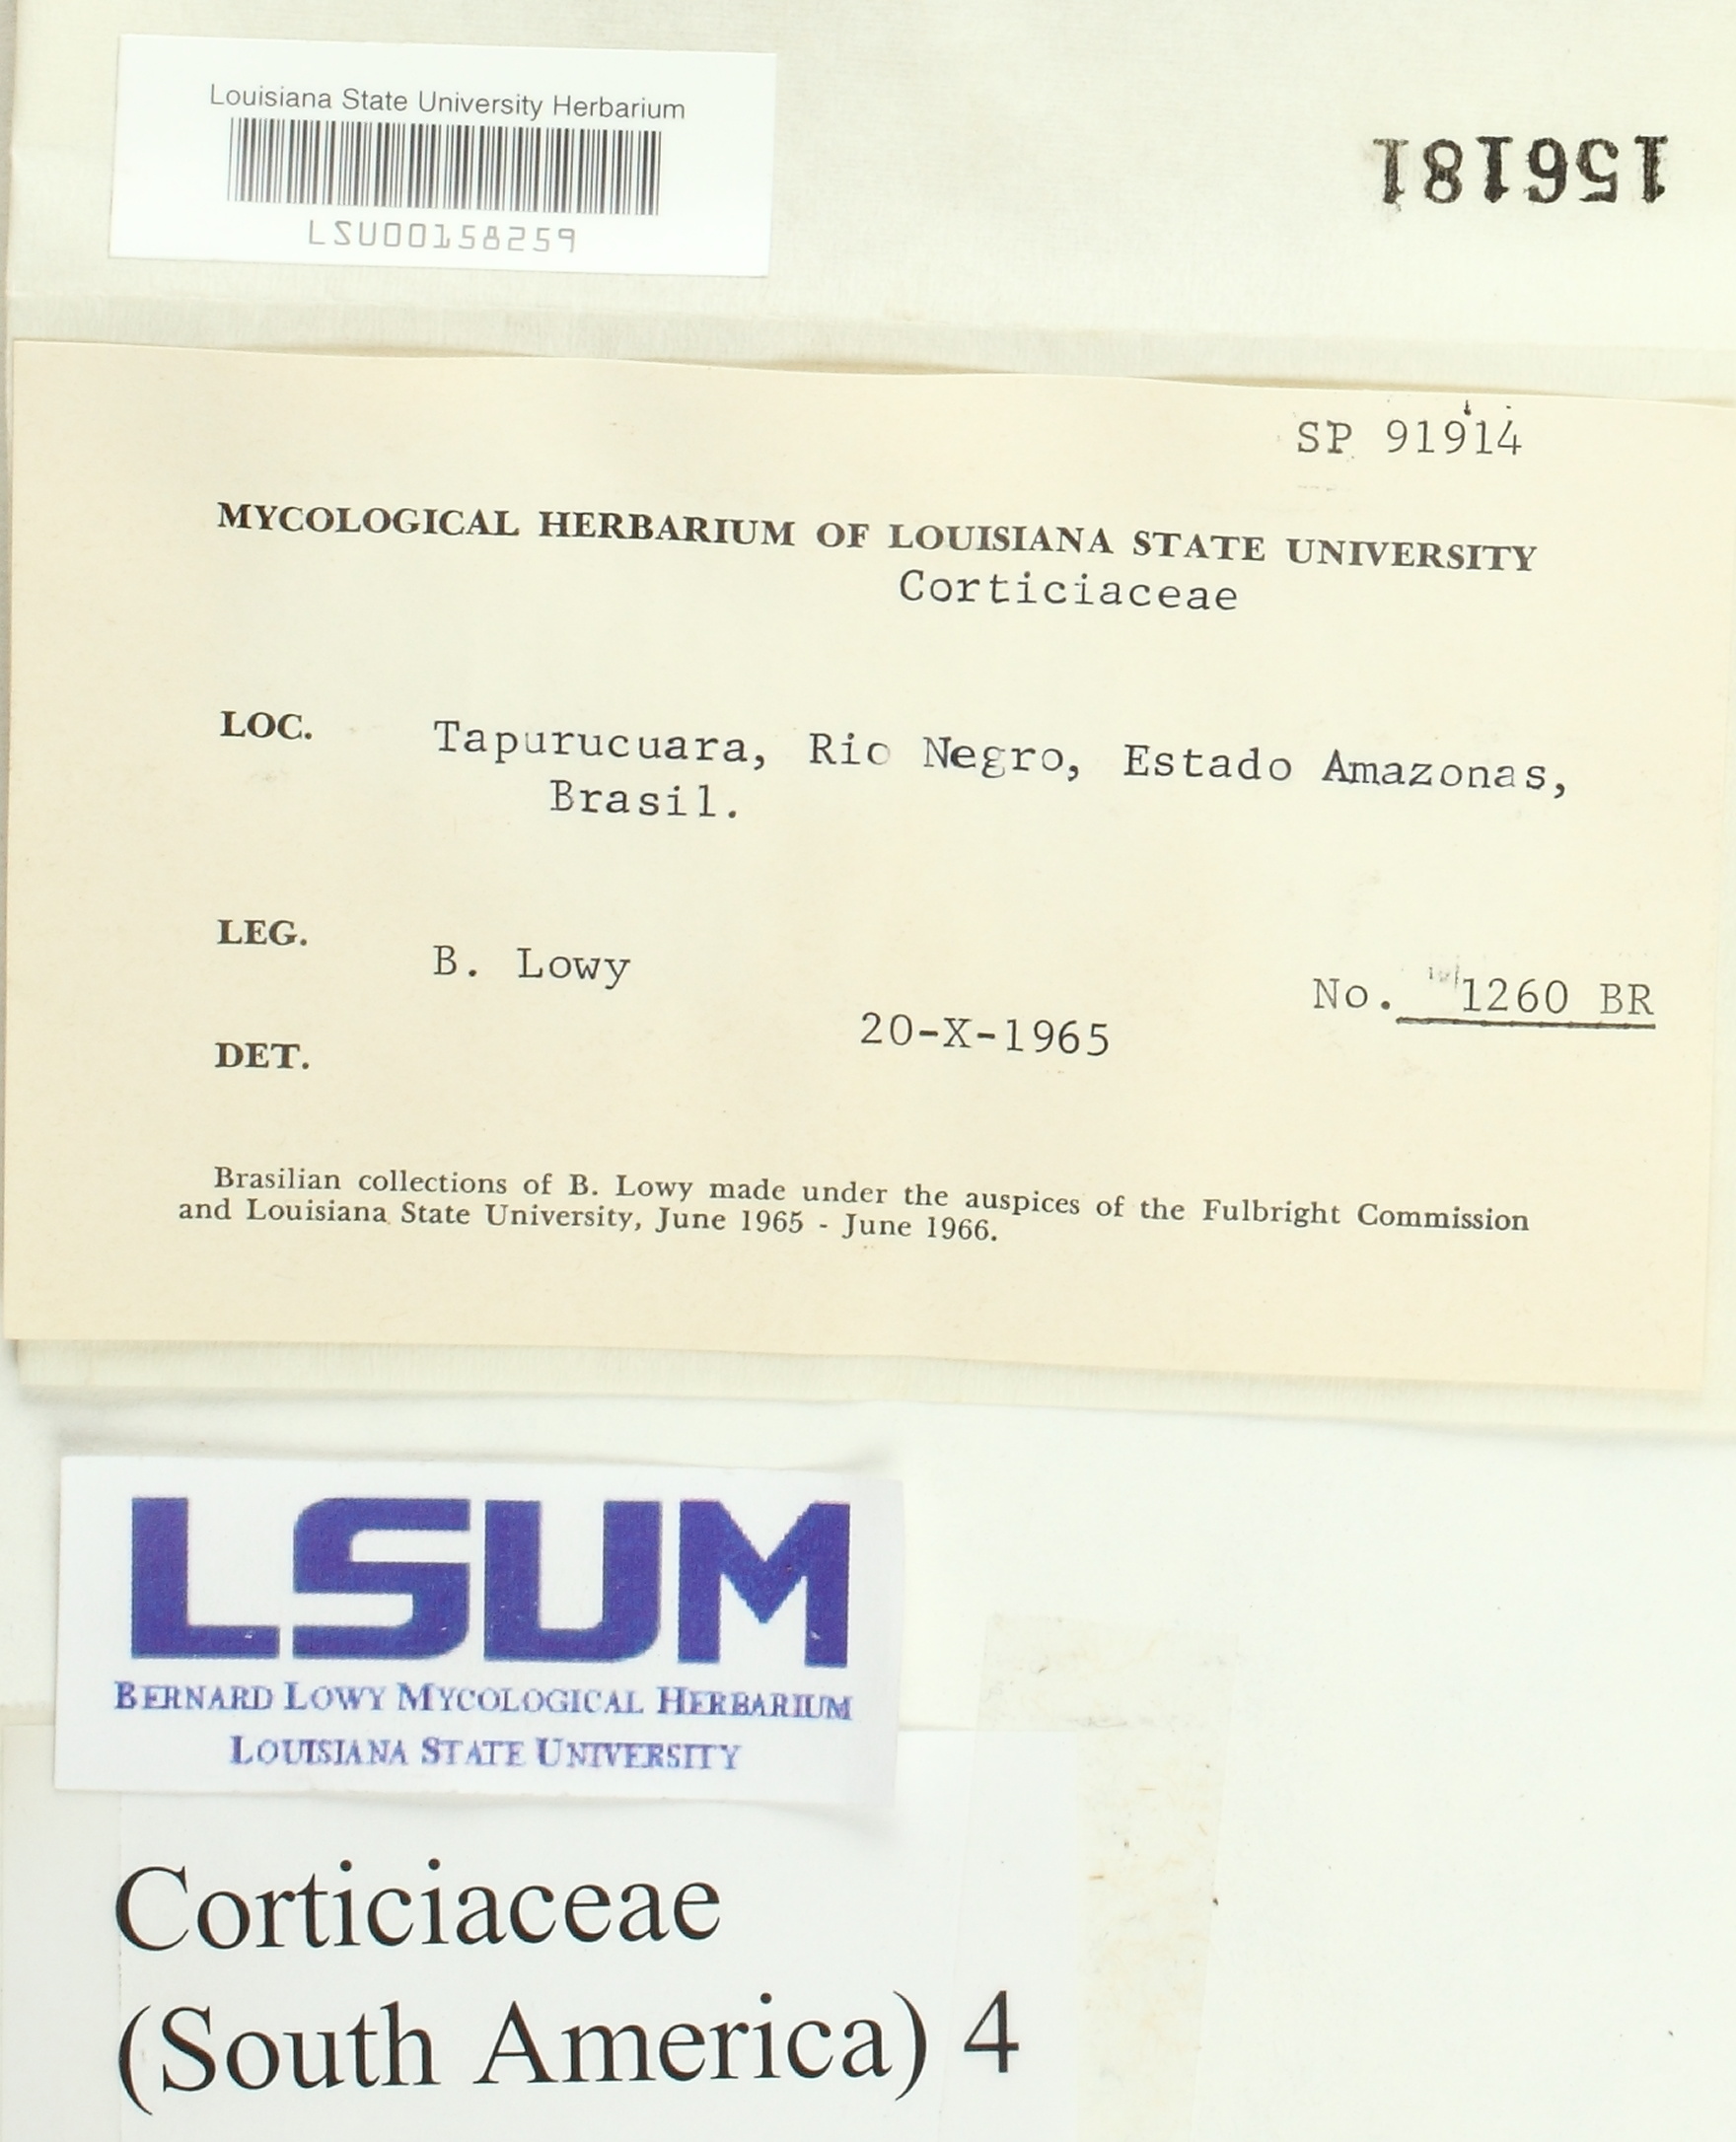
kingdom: Fungi
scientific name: Fungi
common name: Fungi
